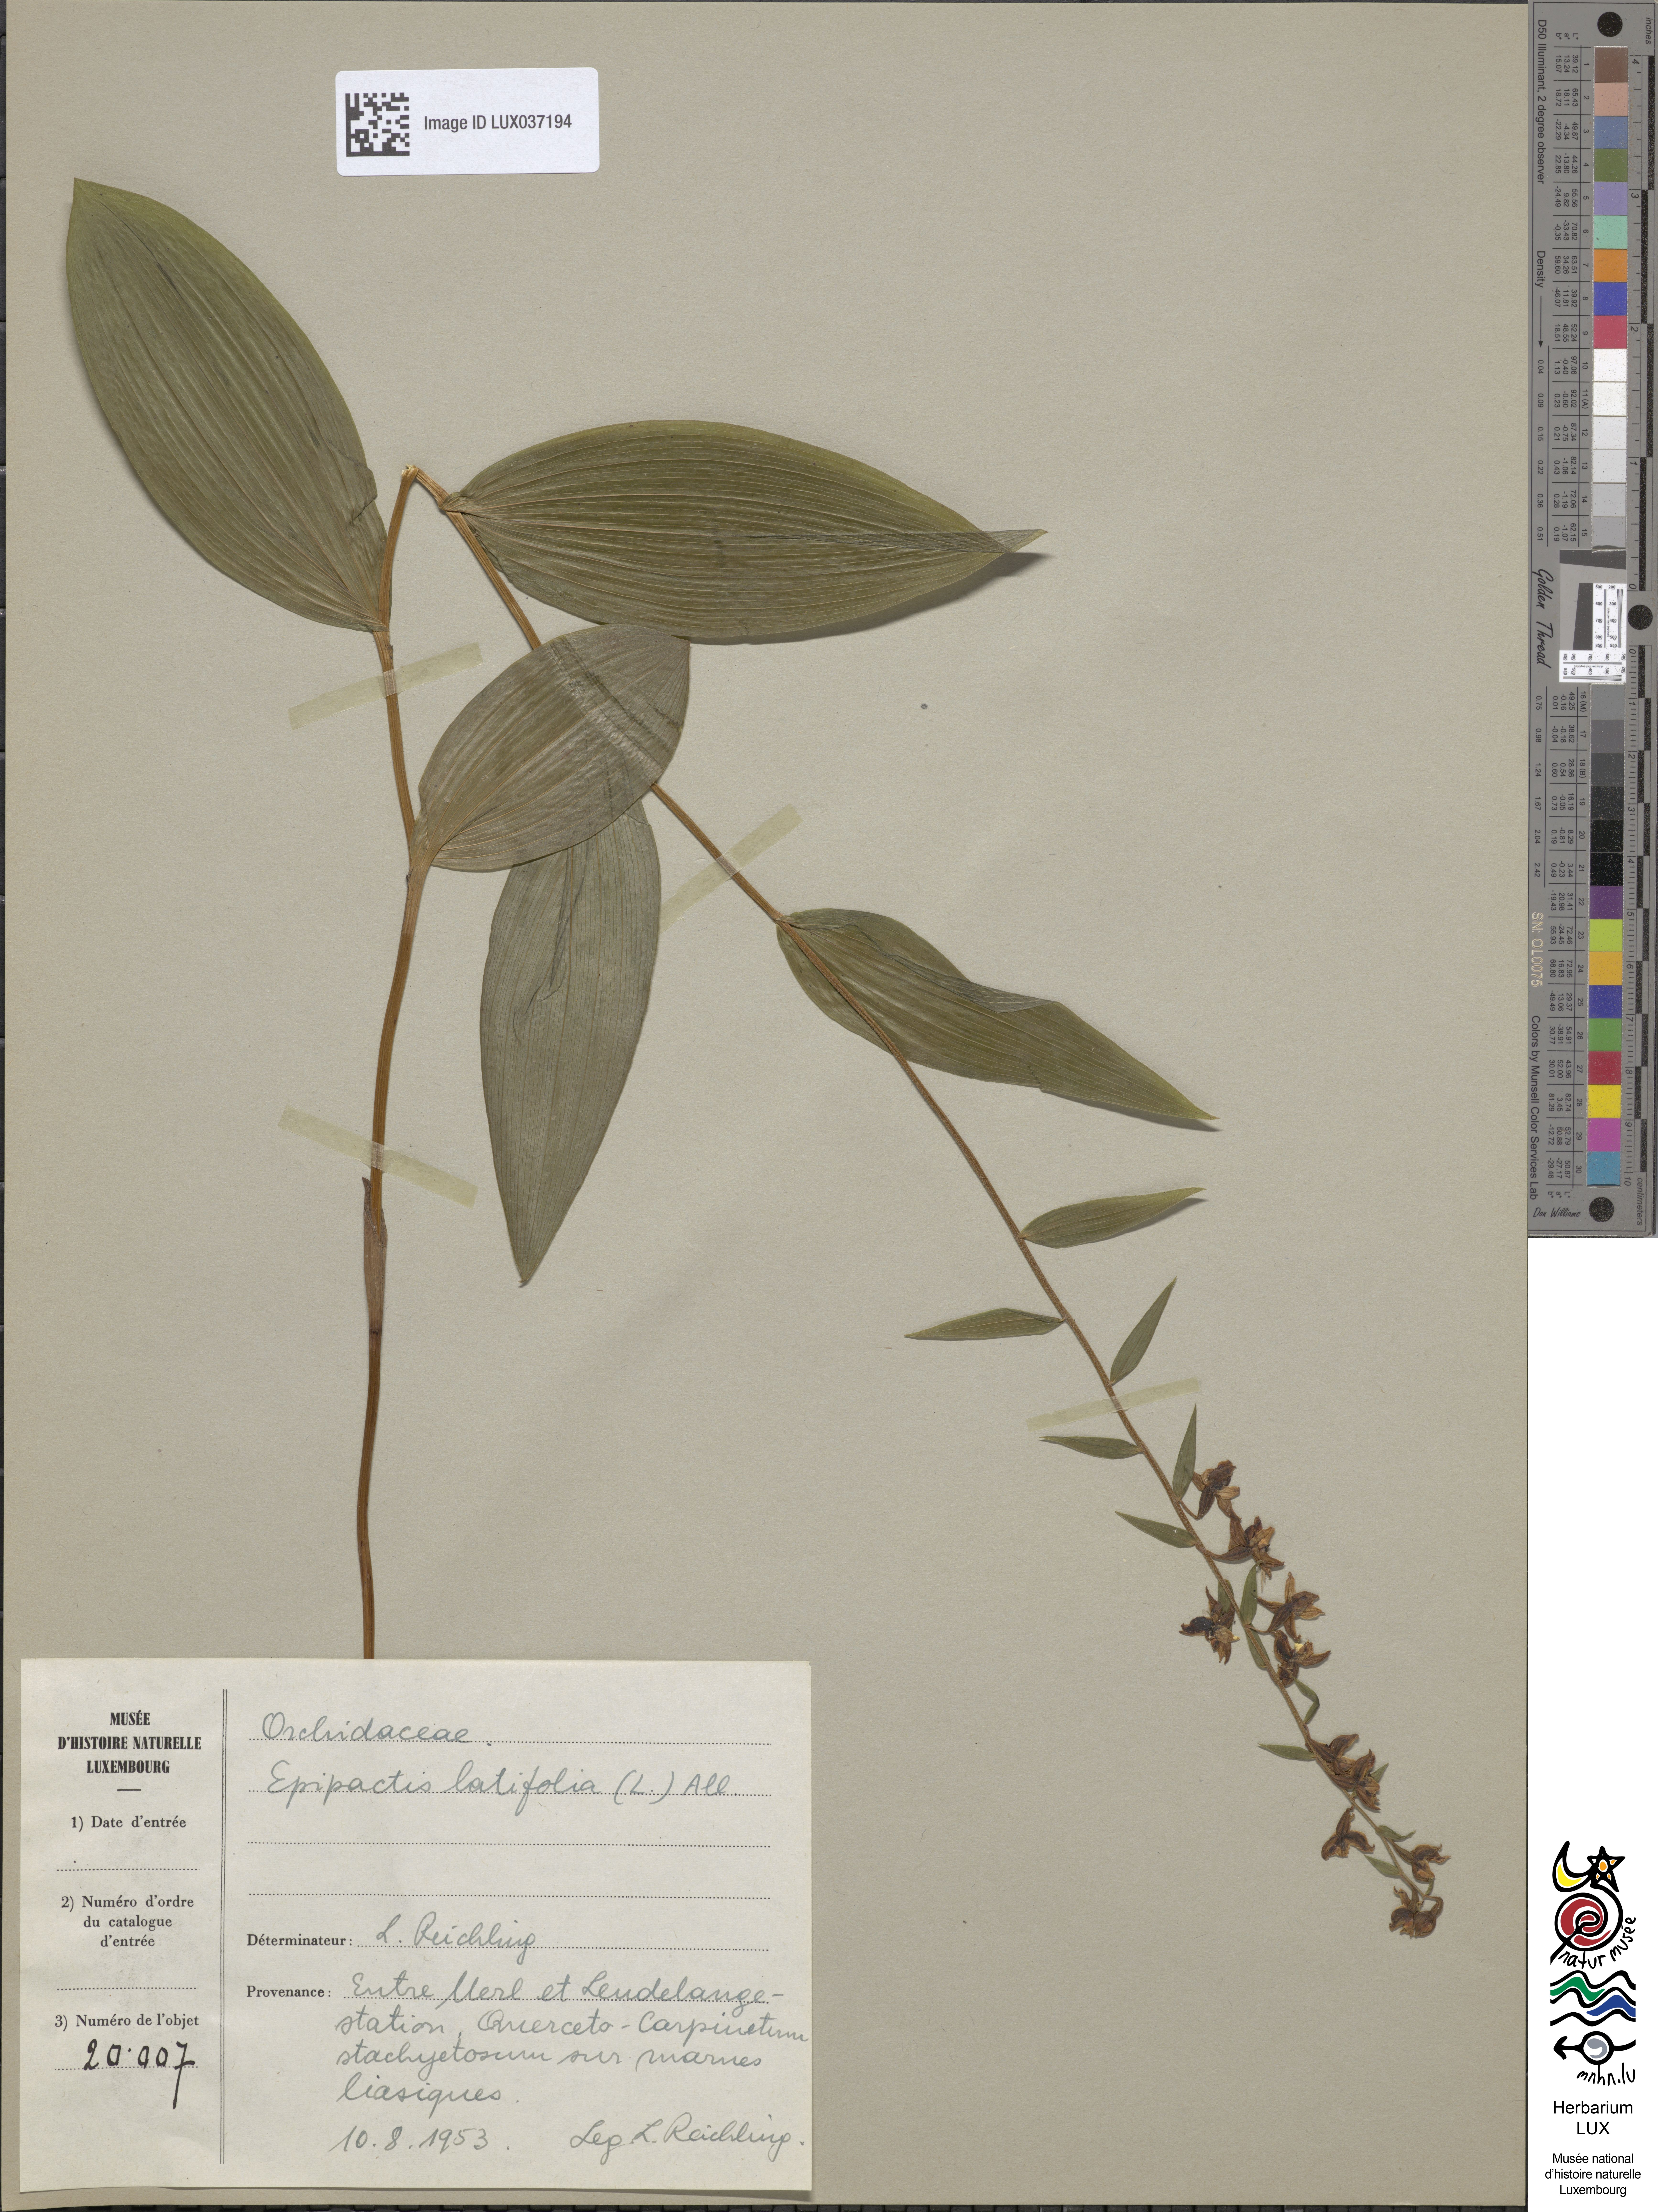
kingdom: Plantae
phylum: Tracheophyta
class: Liliopsida
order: Asparagales
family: Orchidaceae
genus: Epipactis
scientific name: Epipactis helleborine
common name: Broad-leaved helleborine
